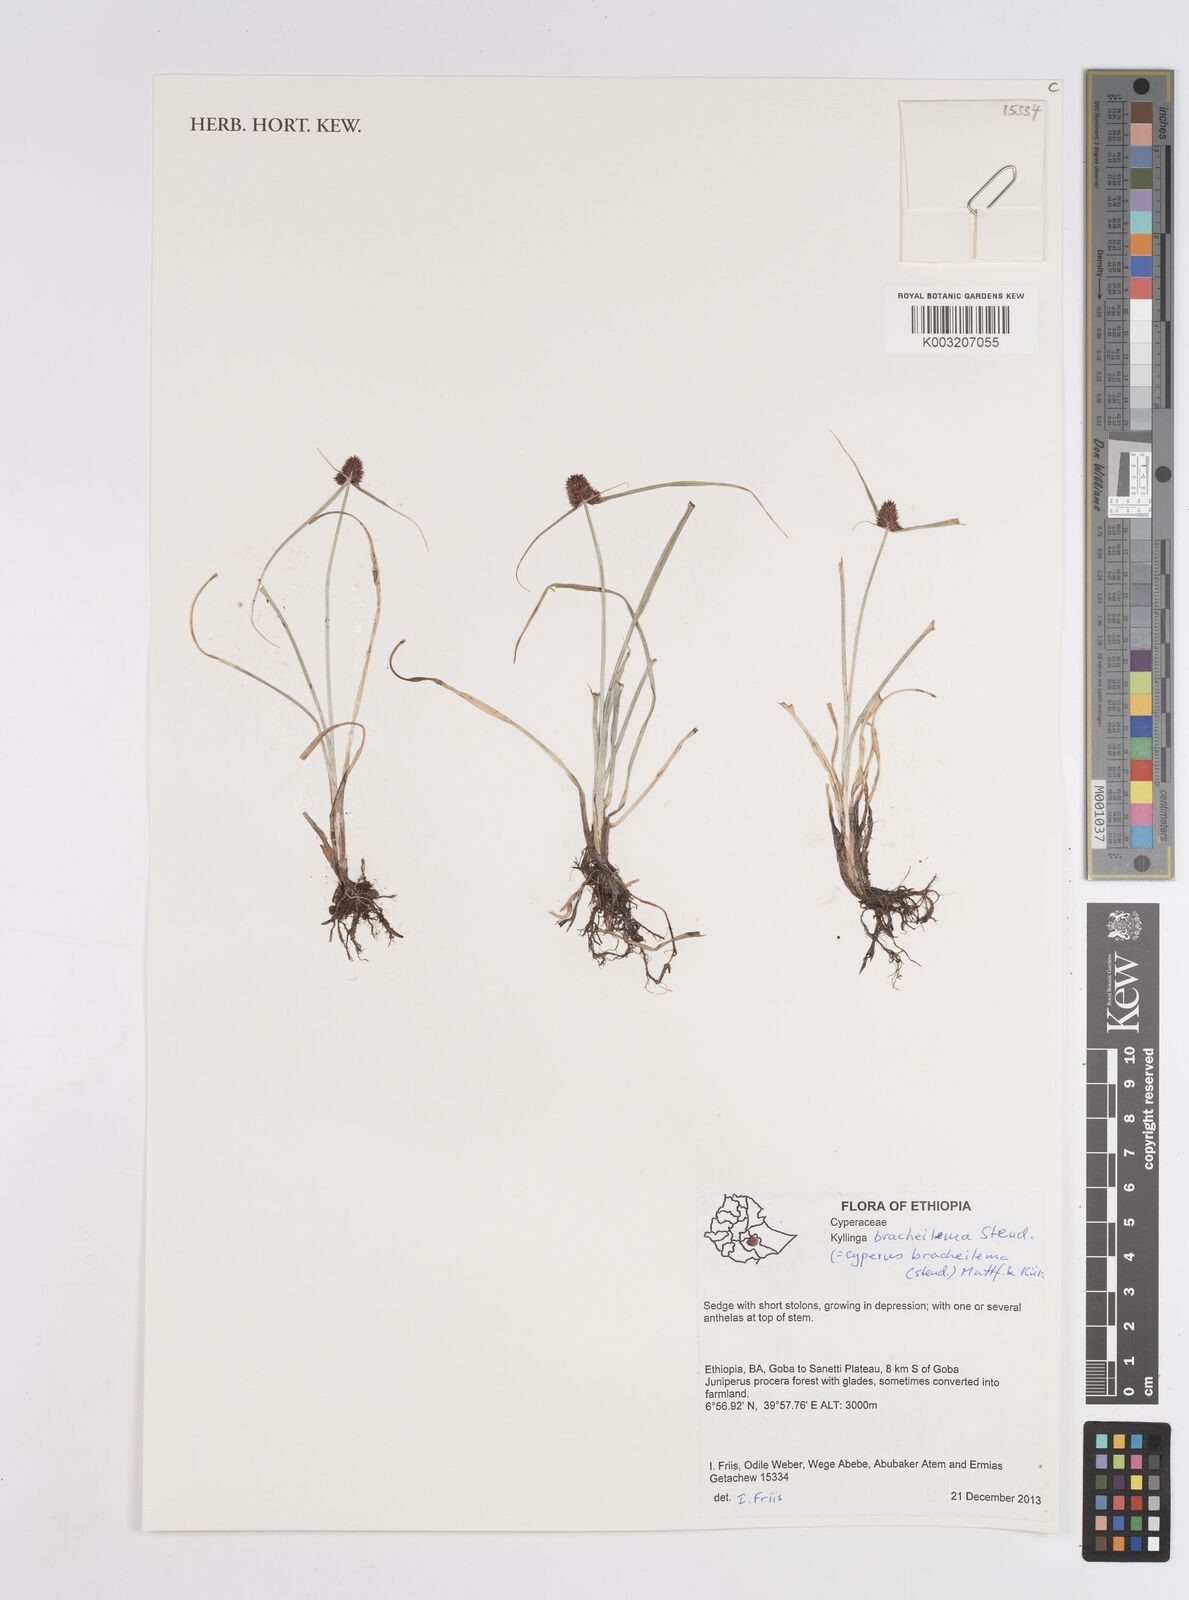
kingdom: Plantae
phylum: Tracheophyta
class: Liliopsida
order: Poales
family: Cyperaceae
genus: Cyperus
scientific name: Cyperus bracheilema
